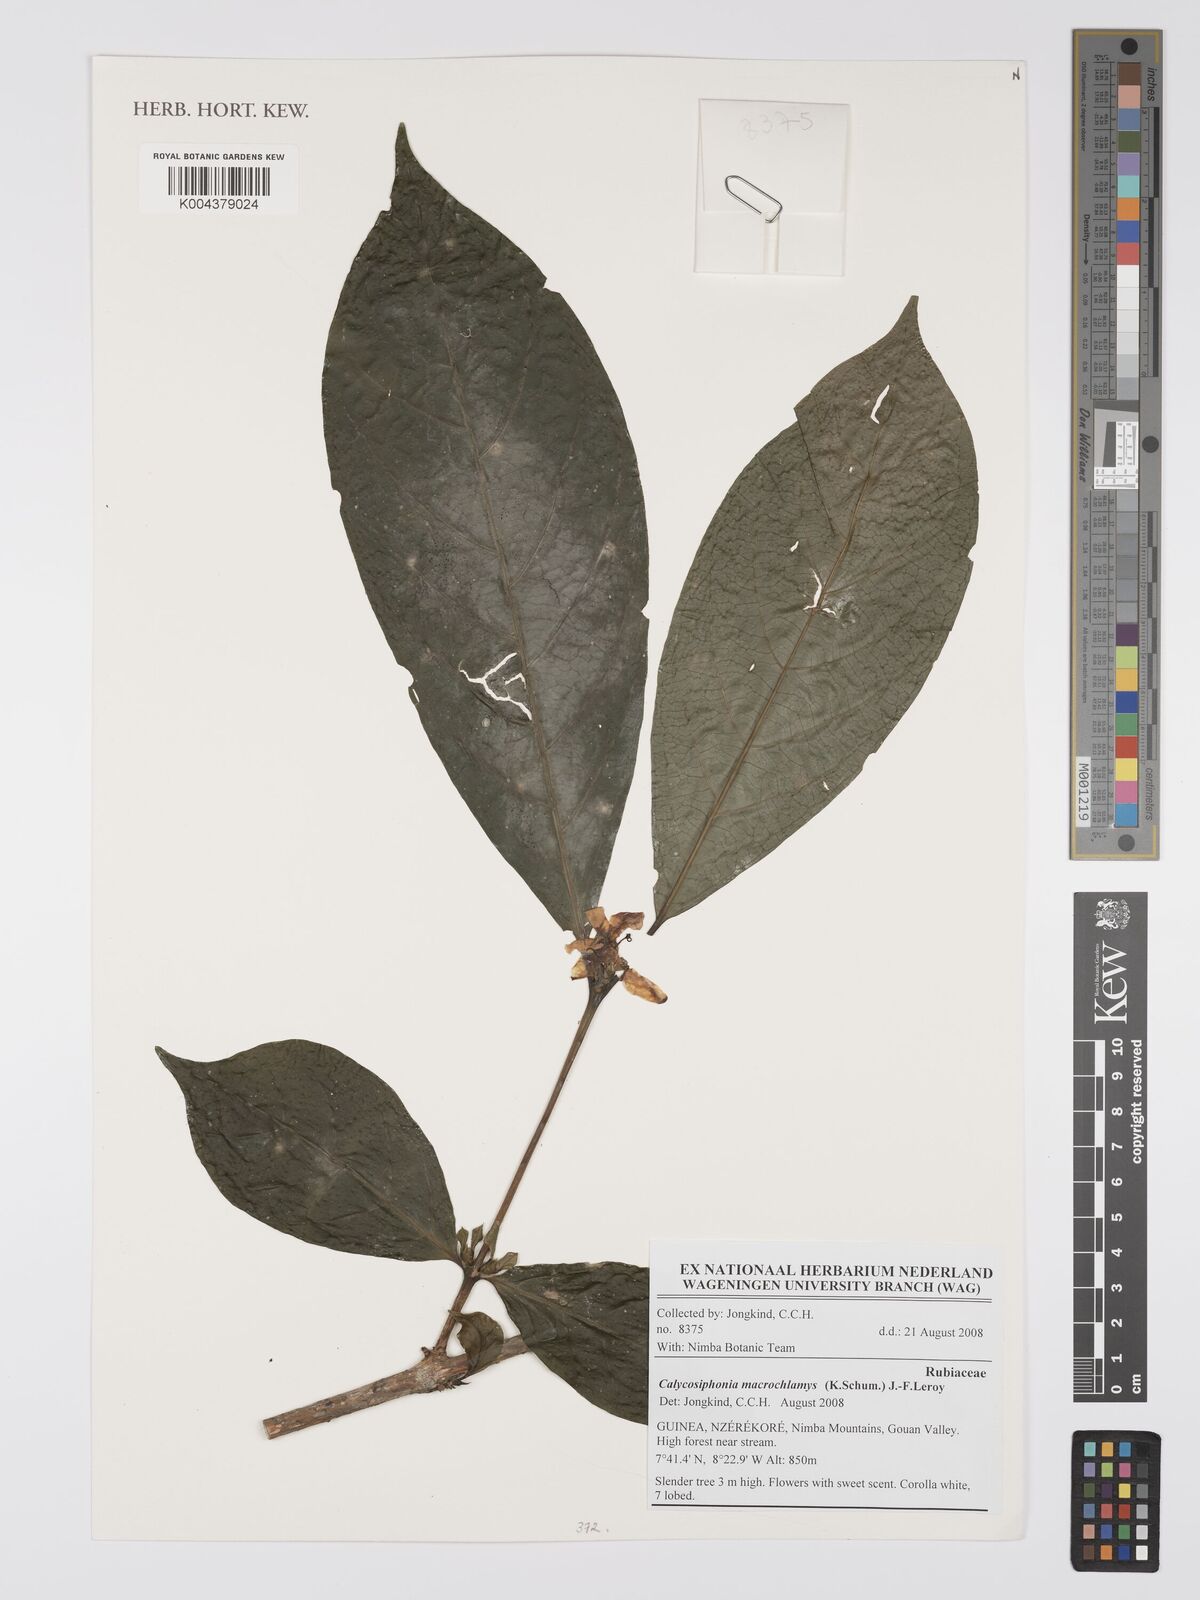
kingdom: Plantae
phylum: Tracheophyta
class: Magnoliopsida
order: Gentianales
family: Rubiaceae
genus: Calycosiphonia
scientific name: Calycosiphonia macrochlamys
